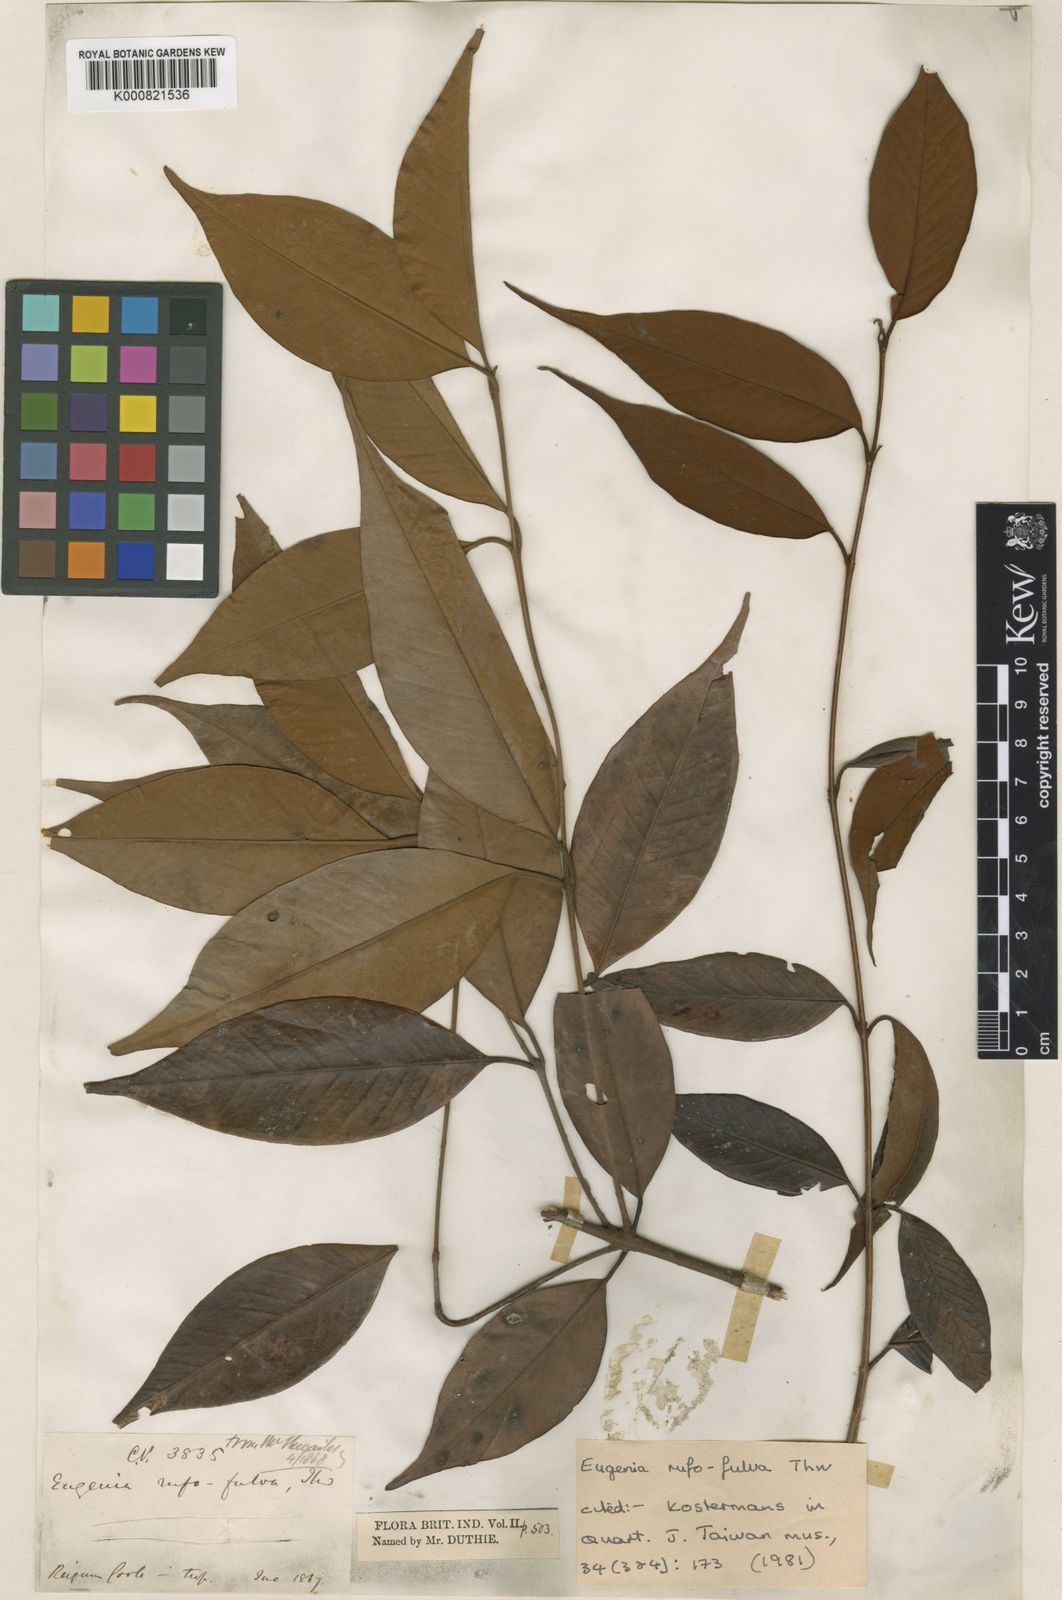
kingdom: Plantae
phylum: Tracheophyta
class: Magnoliopsida
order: Myrtales
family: Myrtaceae
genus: Eugenia
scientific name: Eugenia rufofulva
